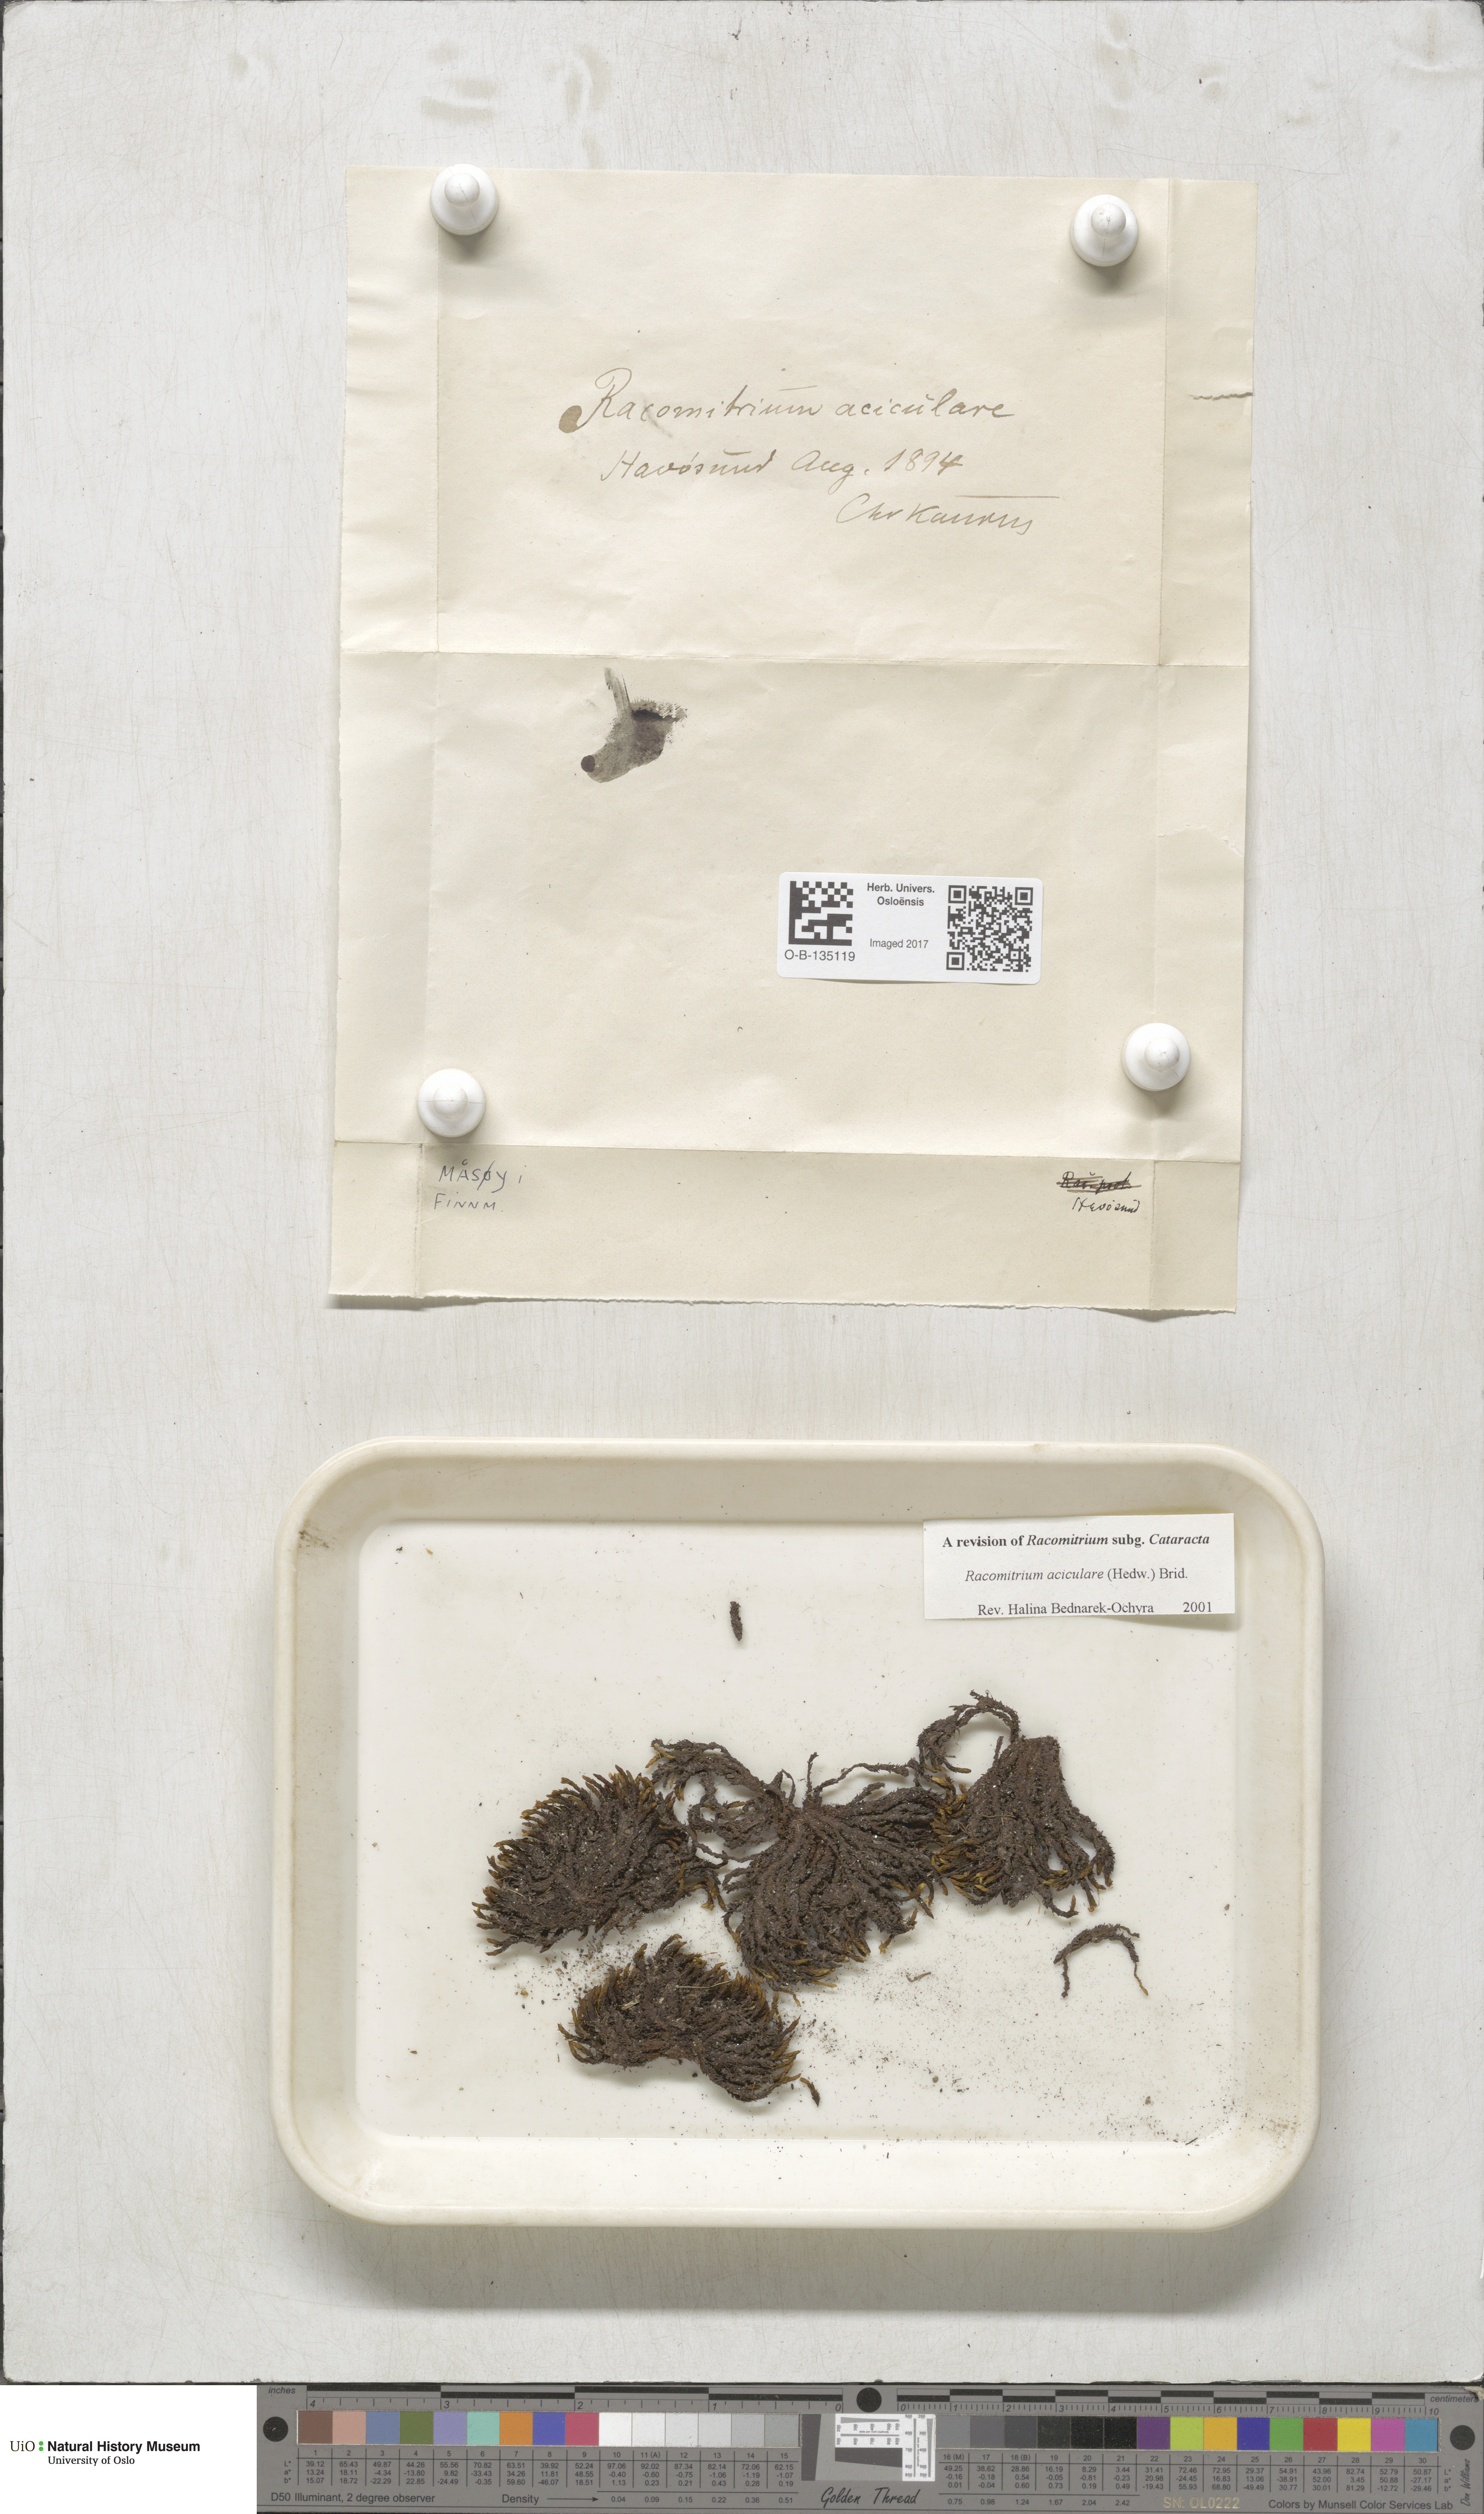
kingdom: Plantae
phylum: Bryophyta
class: Bryopsida
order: Grimmiales
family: Grimmiaceae
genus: Codriophorus
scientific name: Codriophorus acicularis
